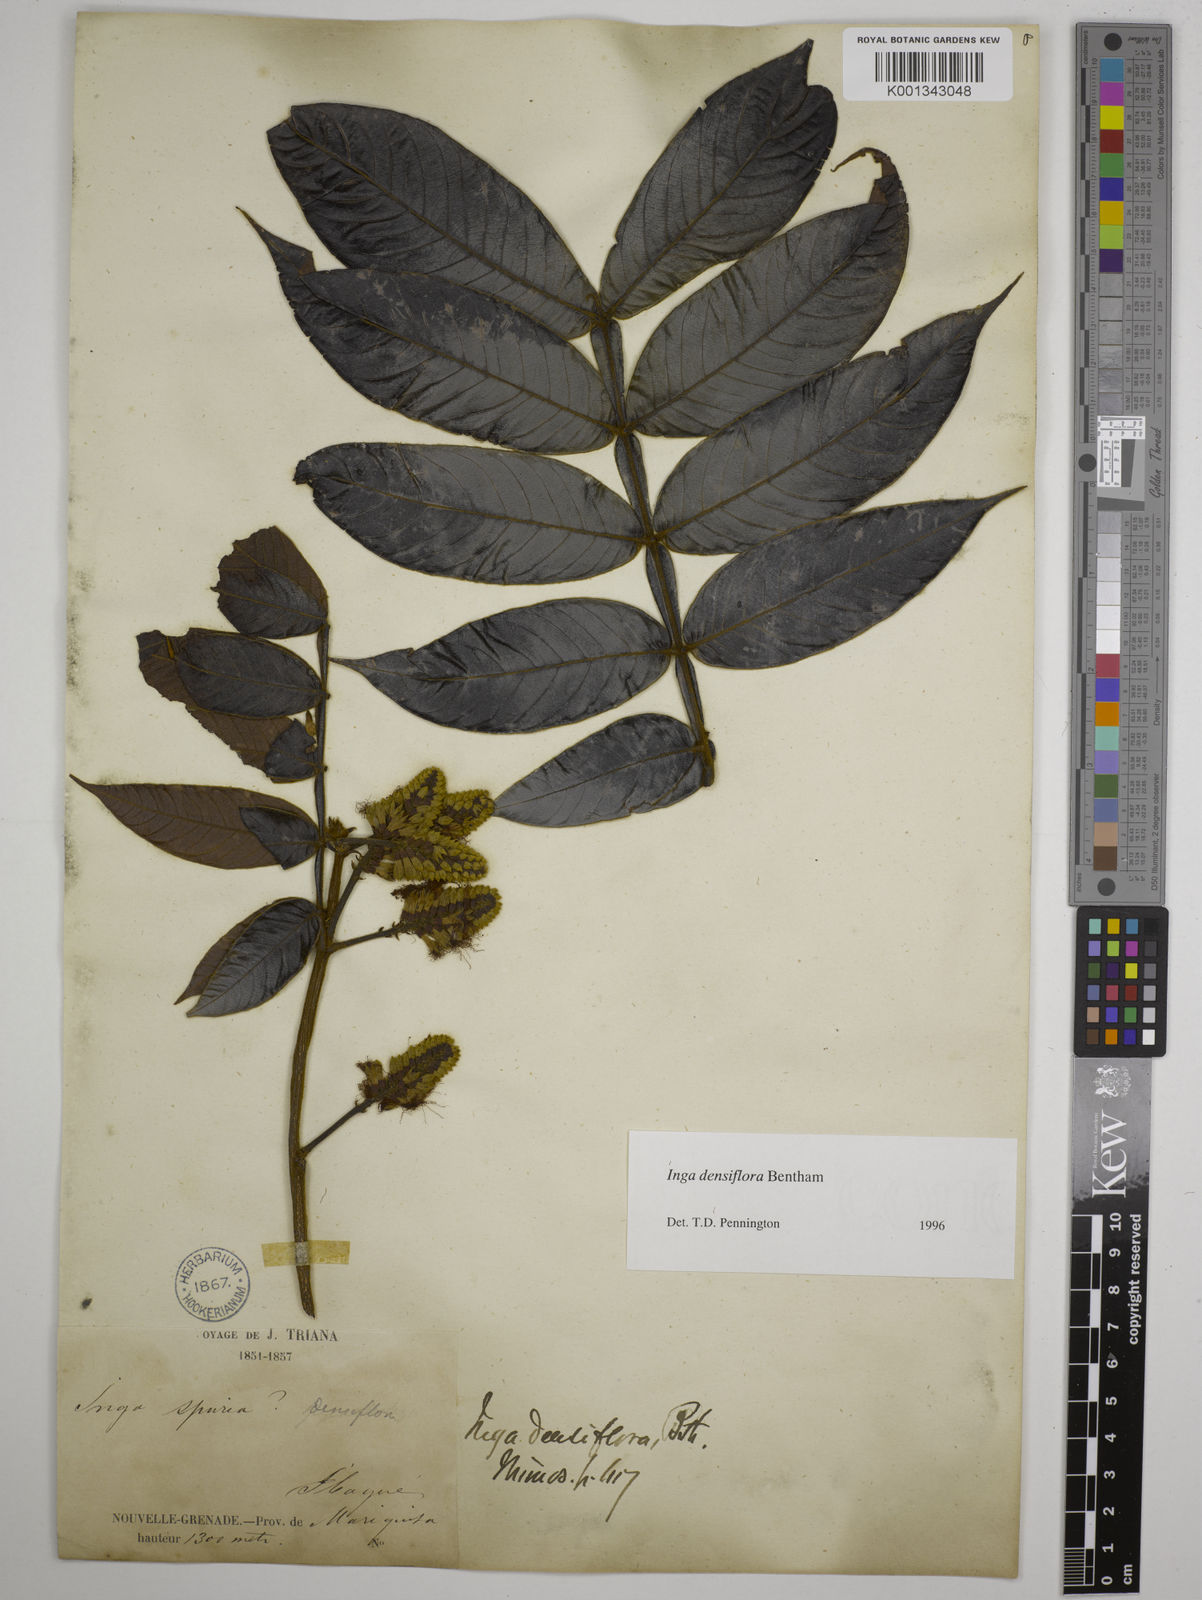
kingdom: Plantae
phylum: Tracheophyta
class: Magnoliopsida
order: Fabales
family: Fabaceae
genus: Inga
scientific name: Inga densiflora
